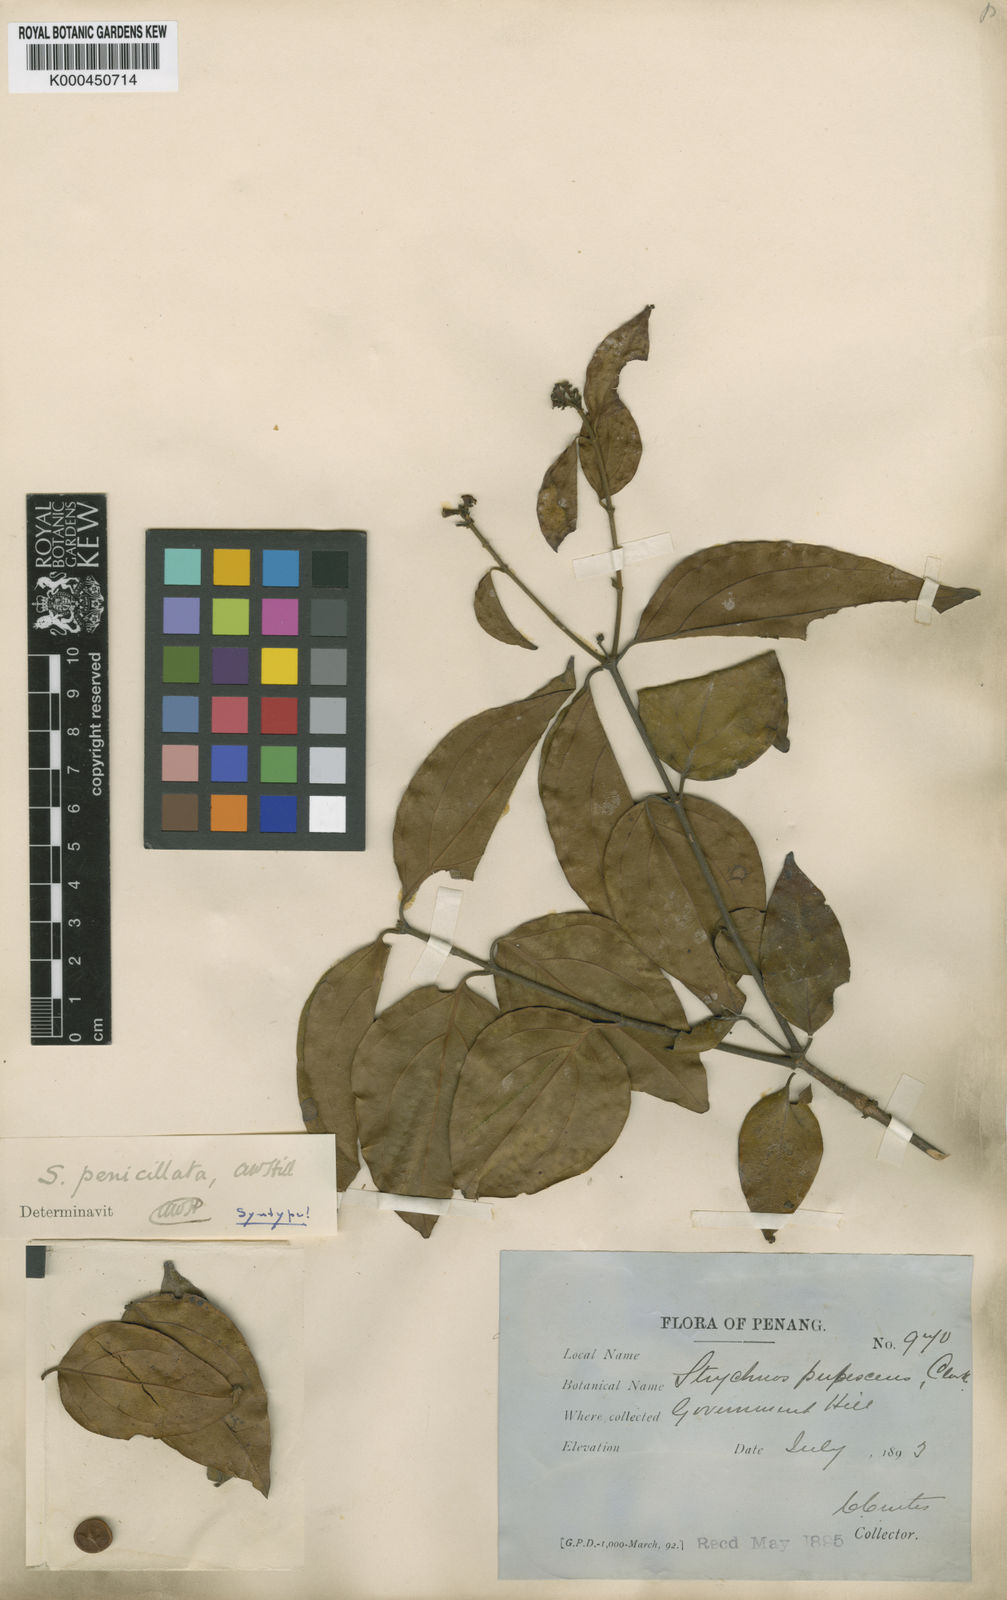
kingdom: Plantae
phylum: Tracheophyta
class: Magnoliopsida
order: Gentianales
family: Loganiaceae
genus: Strychnos
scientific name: Strychnos axillaris
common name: Strychninebush
